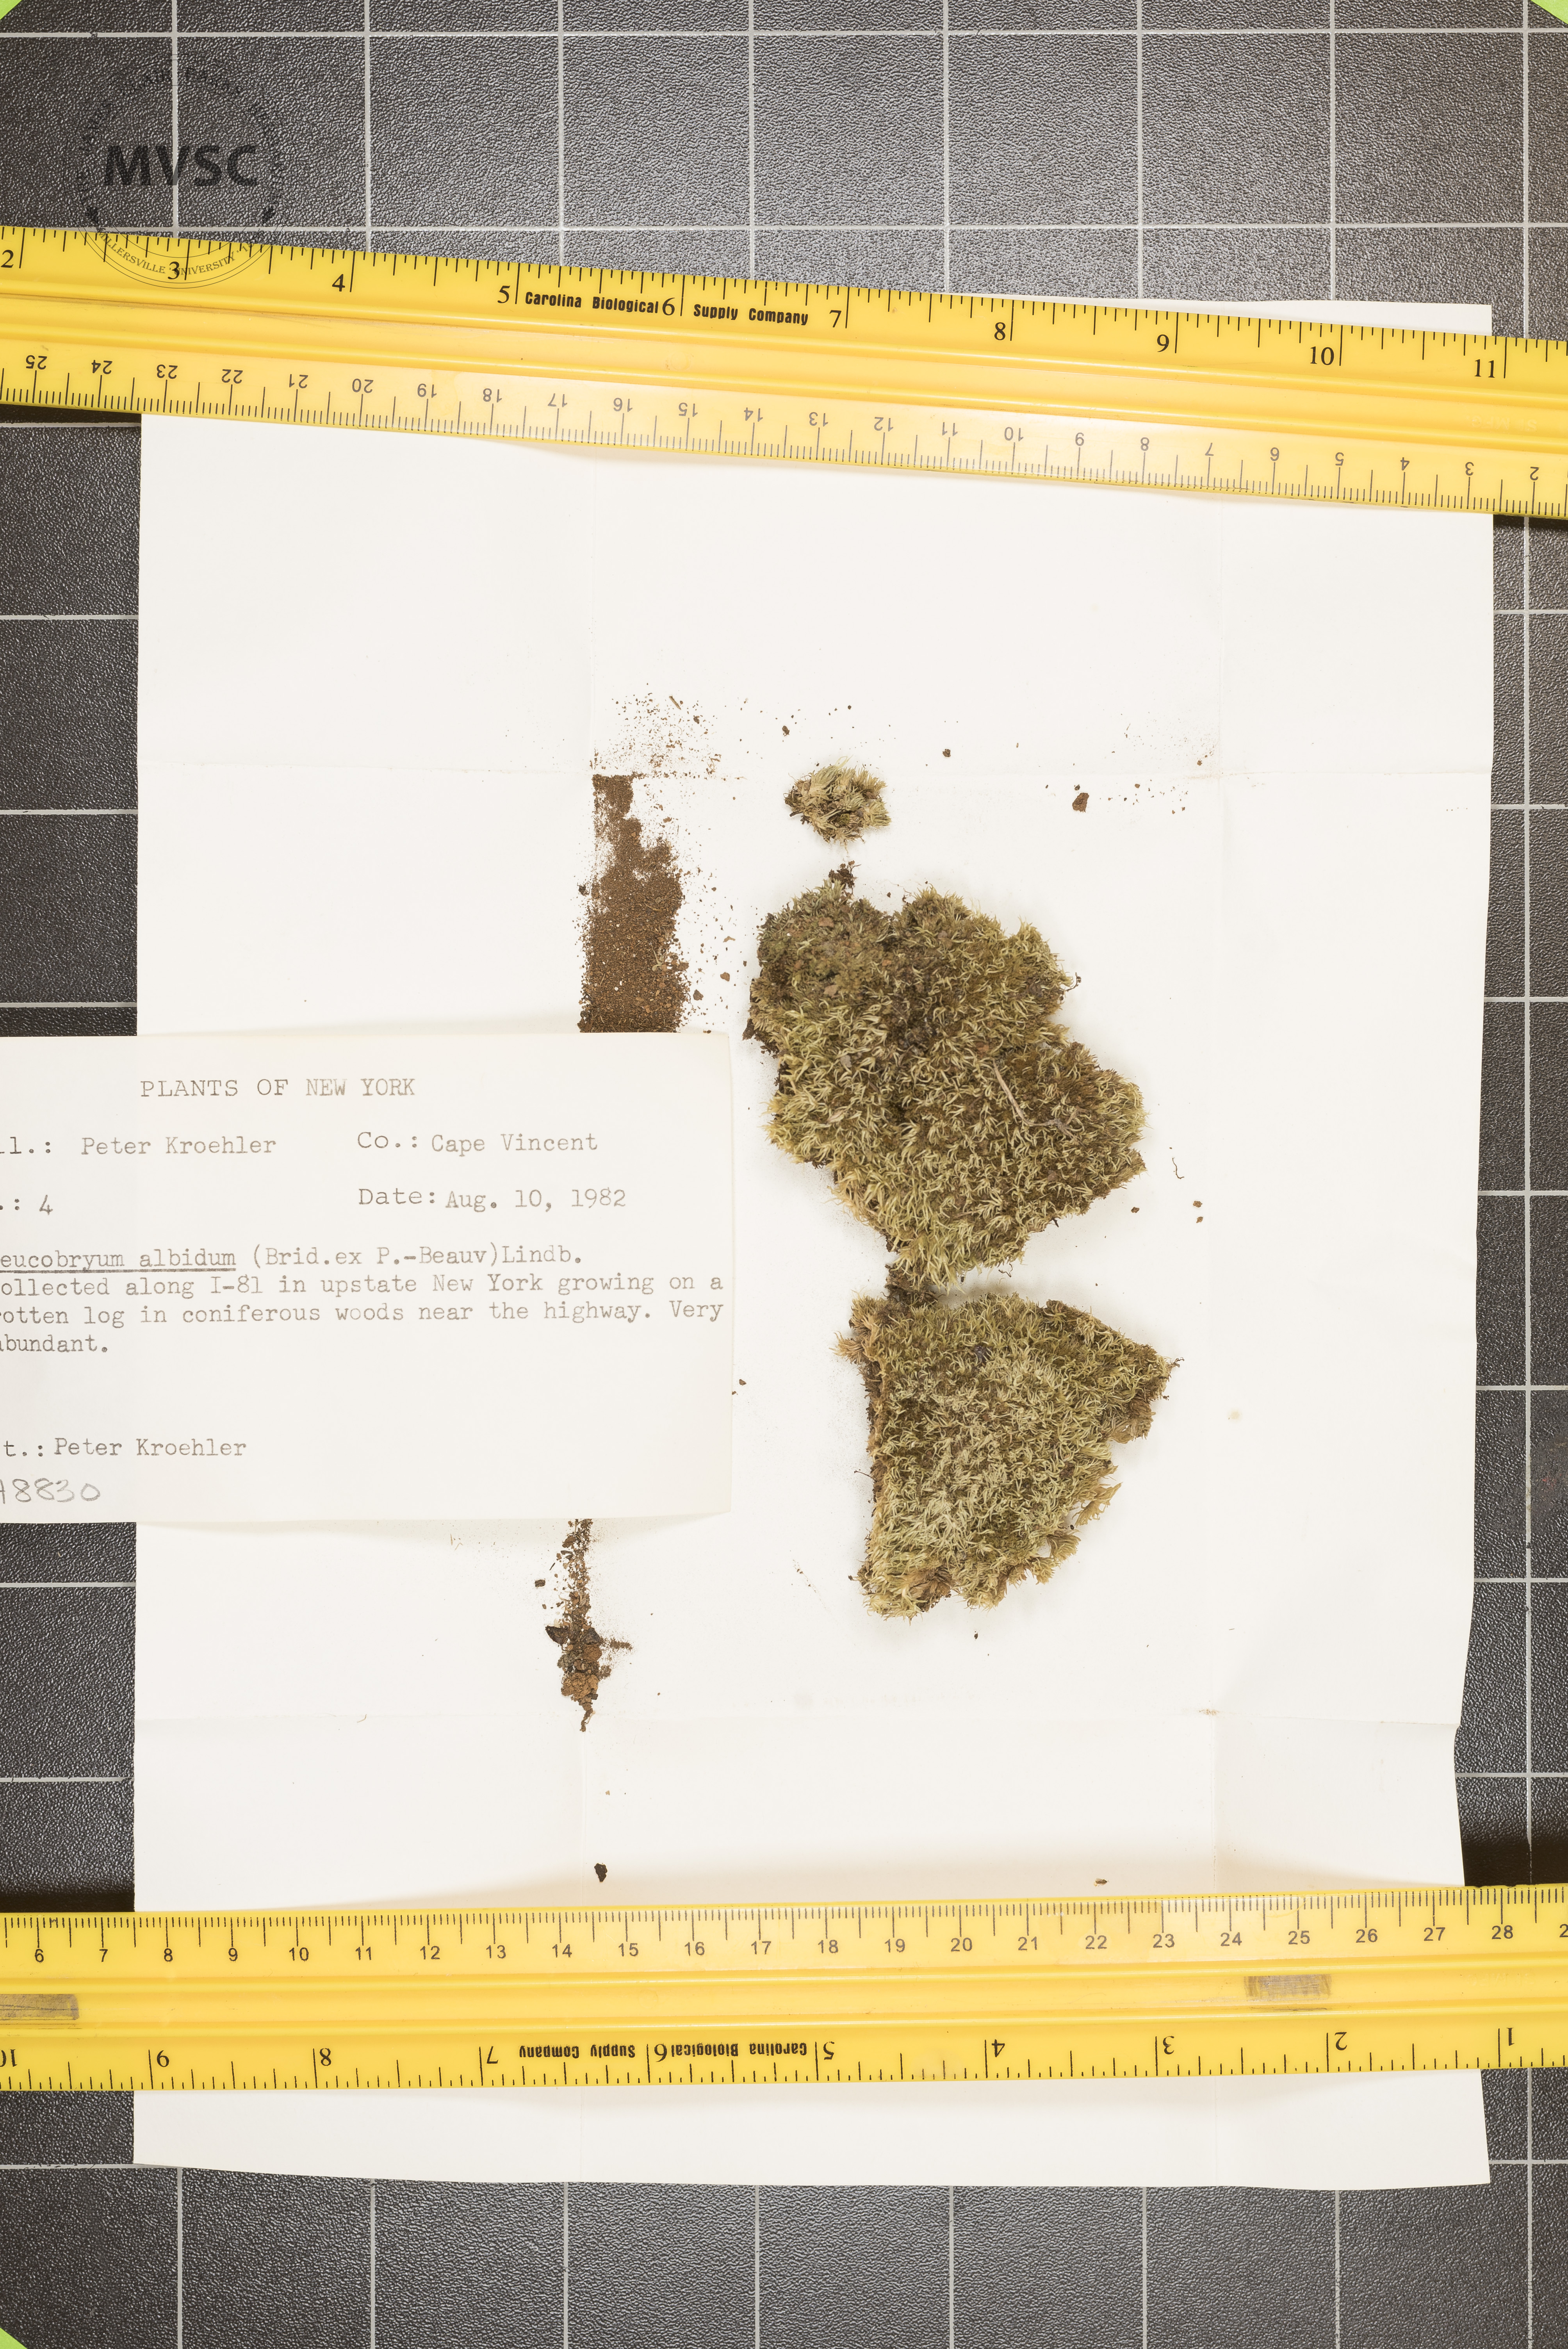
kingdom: Plantae
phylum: Bryophyta
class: Bryopsida
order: Dicranales
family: Leucobryaceae
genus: Leucobryum
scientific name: Leucobryum albidum
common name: White moss
